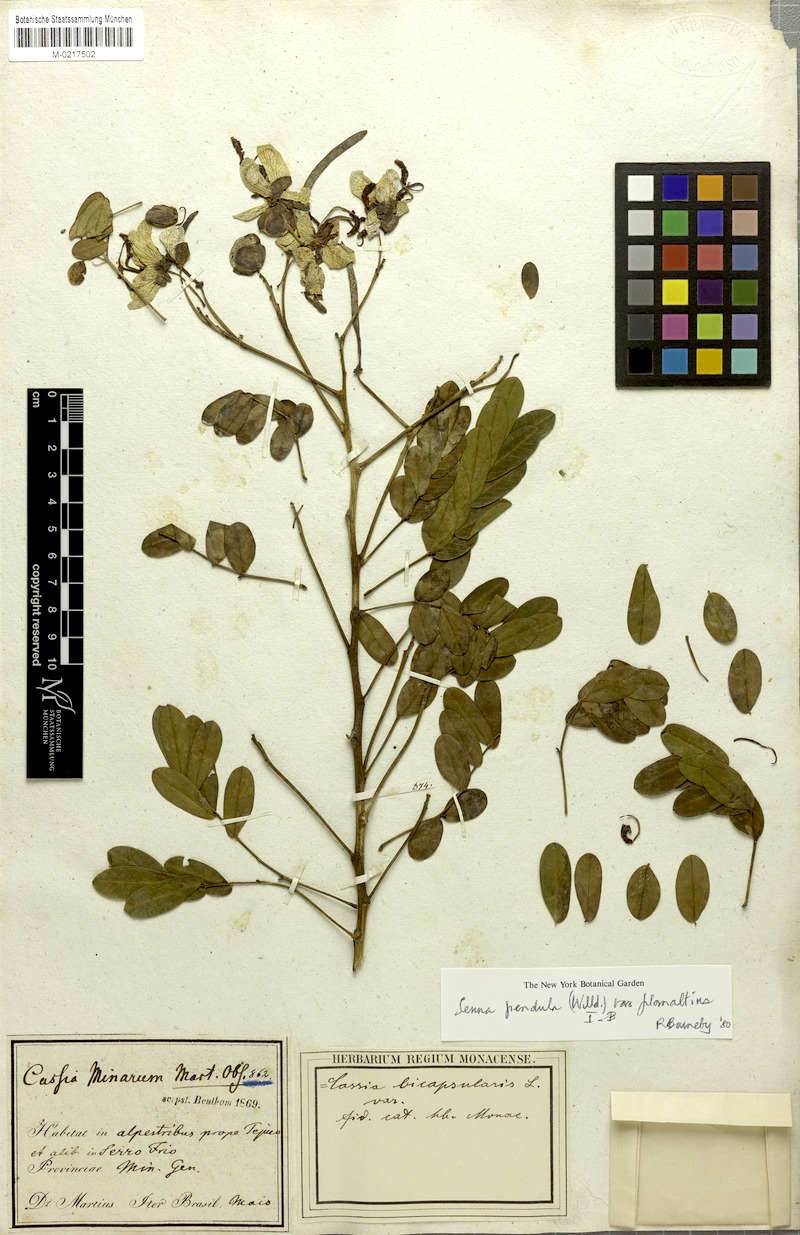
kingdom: Plantae
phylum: Tracheophyta
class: Magnoliopsida
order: Fabales
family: Fabaceae
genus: Senna
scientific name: Senna pendula
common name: Easter cassia
